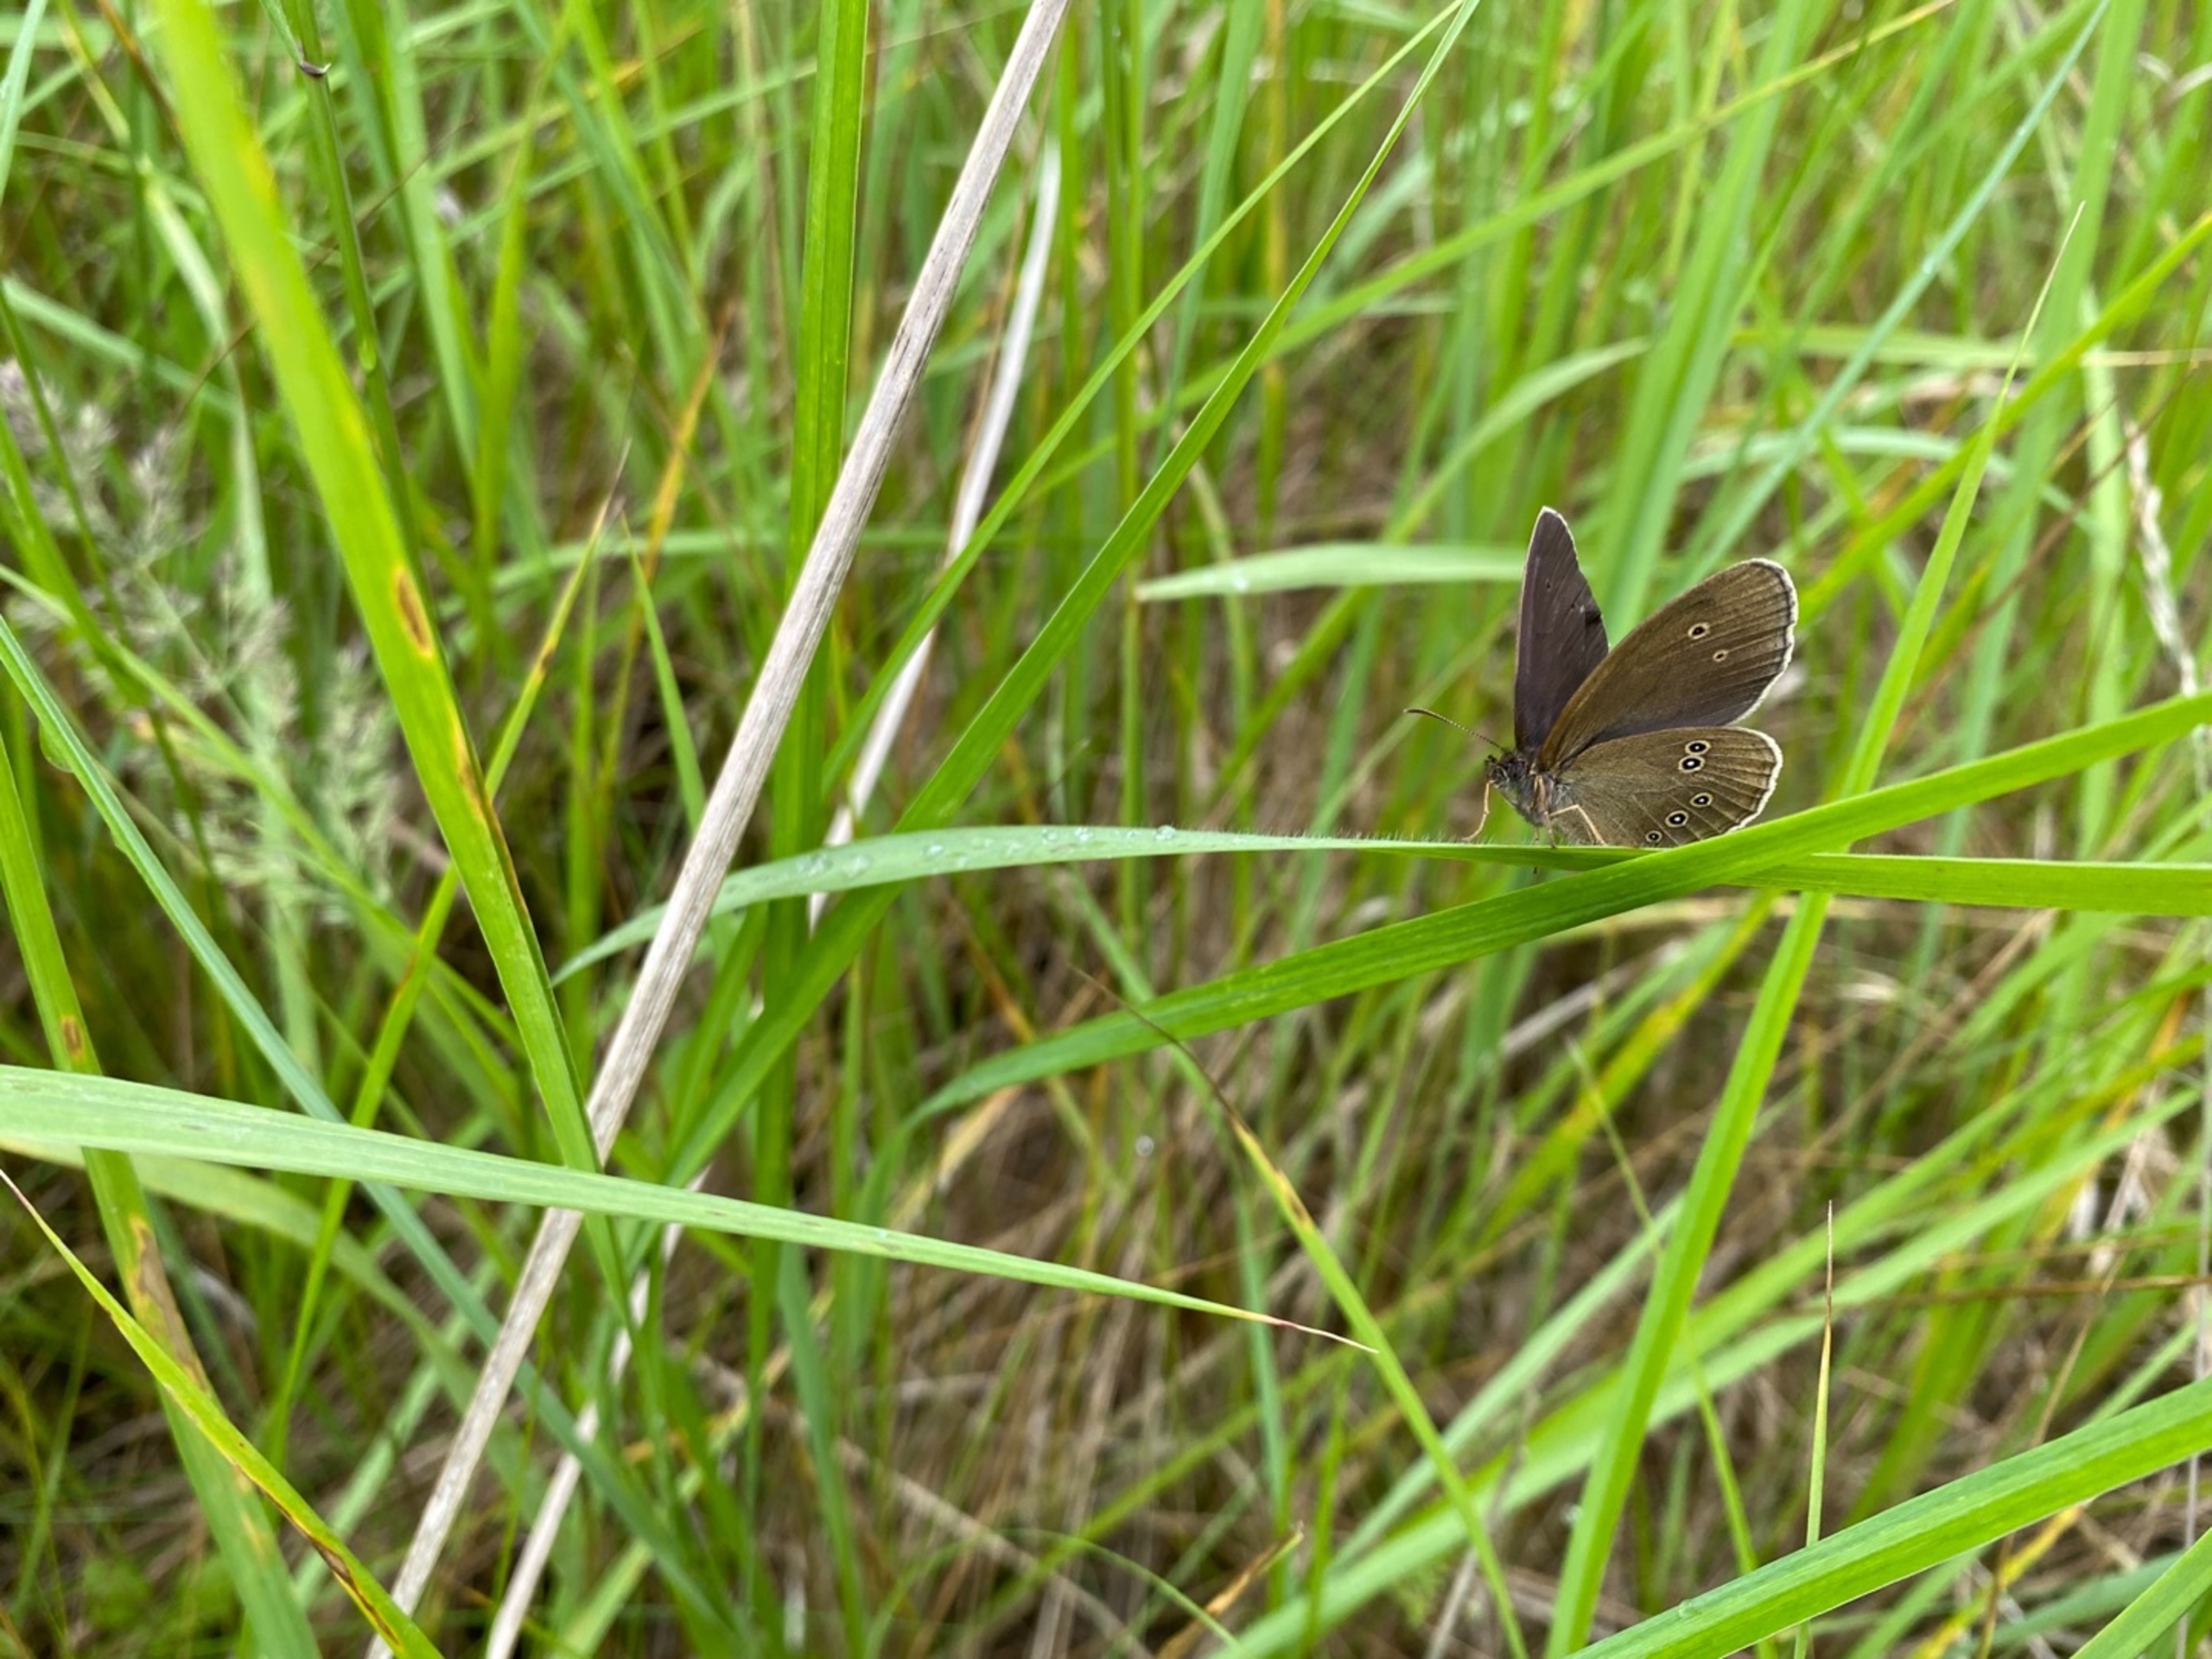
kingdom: Animalia
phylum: Arthropoda
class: Insecta
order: Lepidoptera
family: Nymphalidae
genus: Aphantopus
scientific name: Aphantopus hyperantus
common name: Engrandøje
